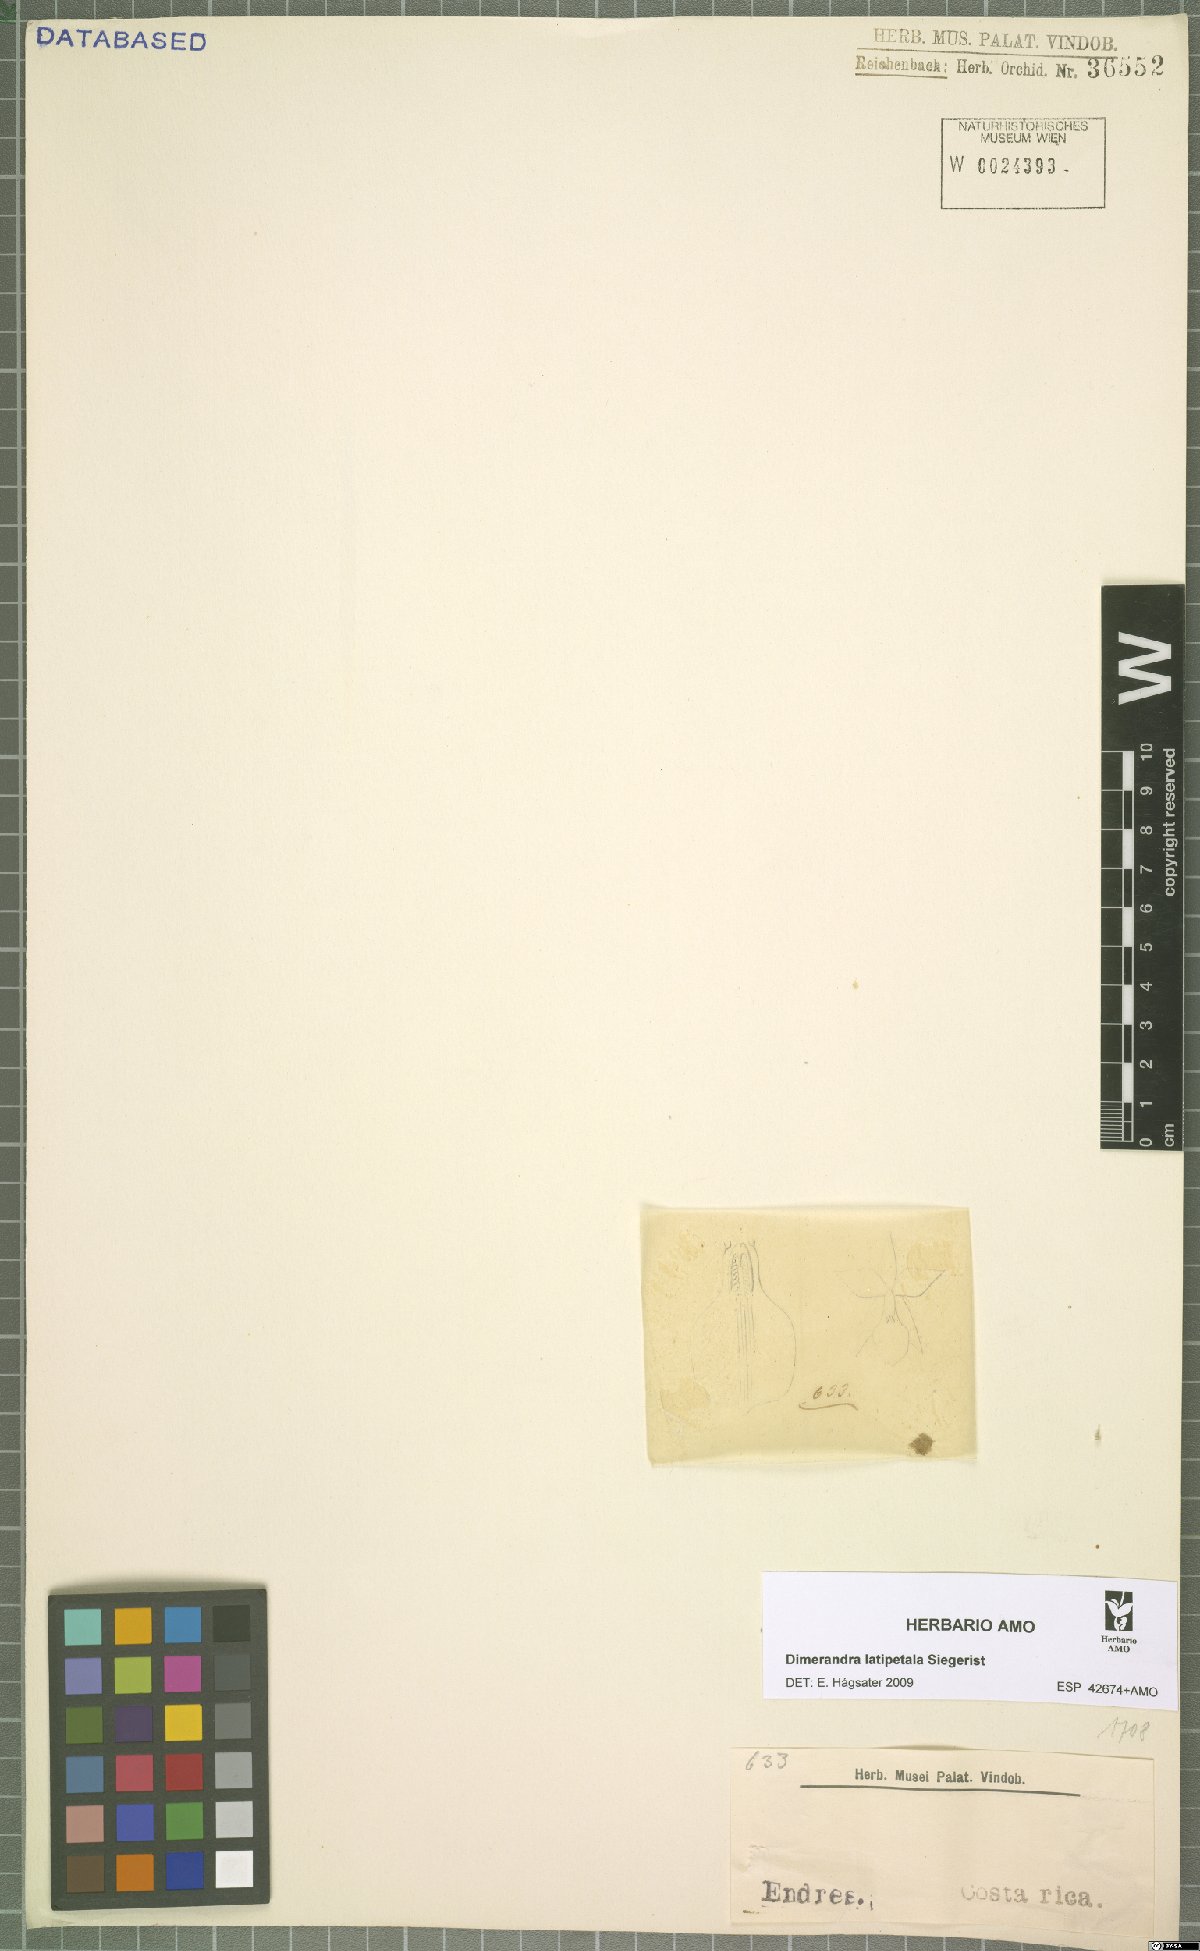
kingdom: Plantae
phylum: Tracheophyta
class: Liliopsida
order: Asparagales
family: Orchidaceae
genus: Dimerandra
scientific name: Dimerandra emarginata
